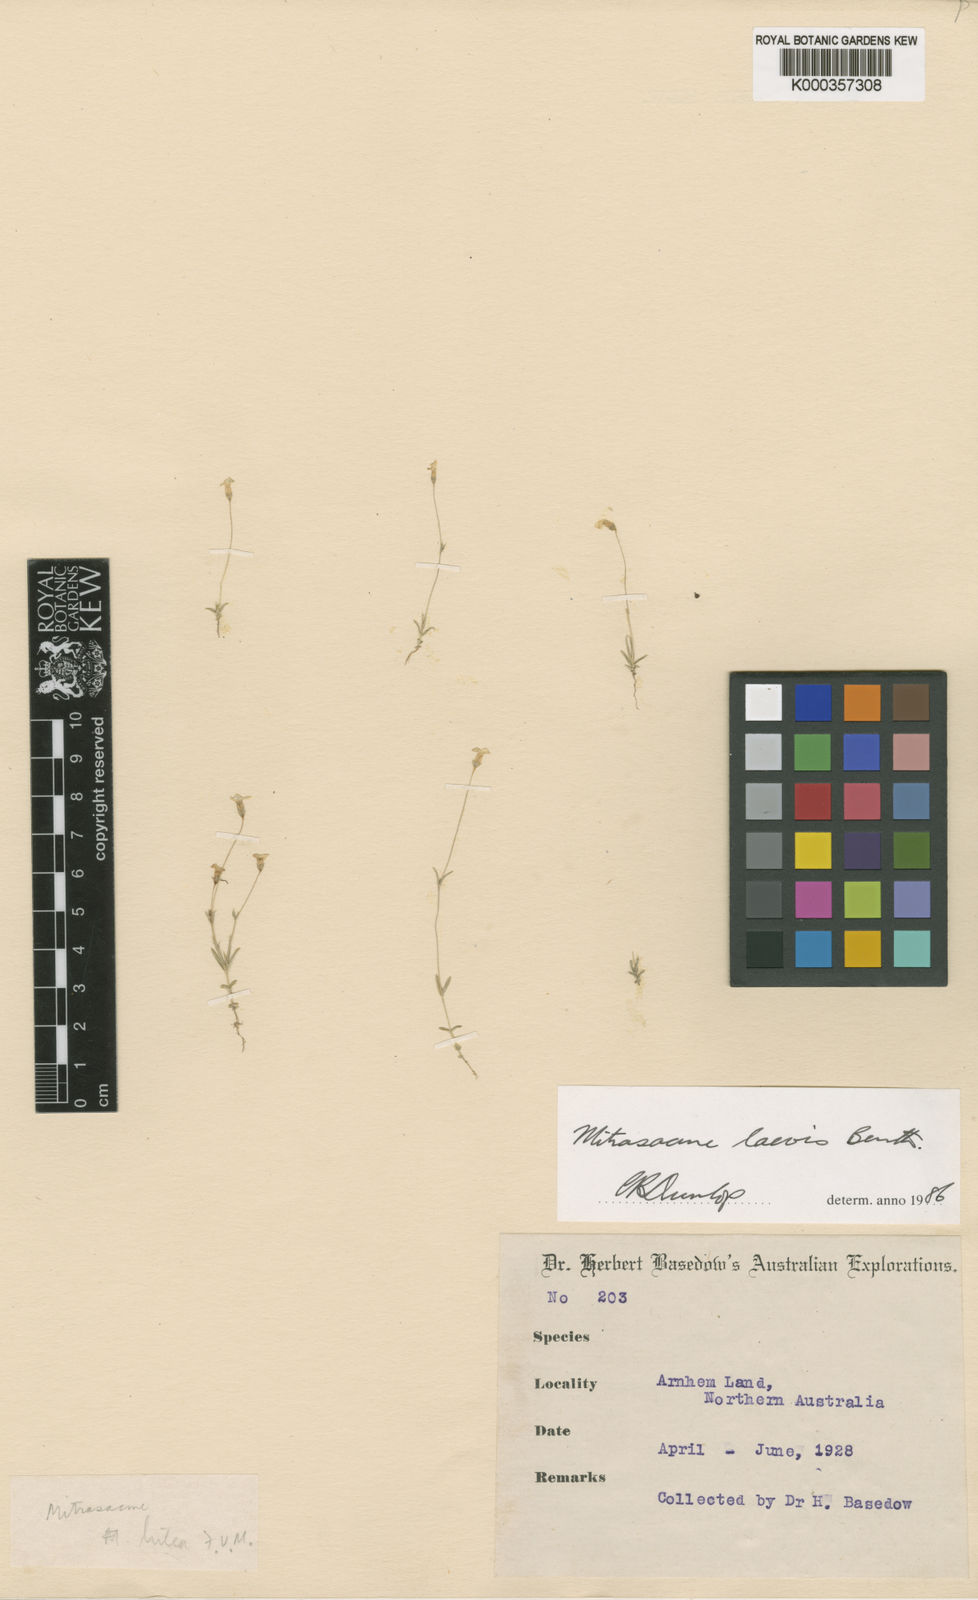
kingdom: Plantae
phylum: Tracheophyta
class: Magnoliopsida
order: Gentianales
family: Loganiaceae
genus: Mitrasacme
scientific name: Mitrasacme laevis
